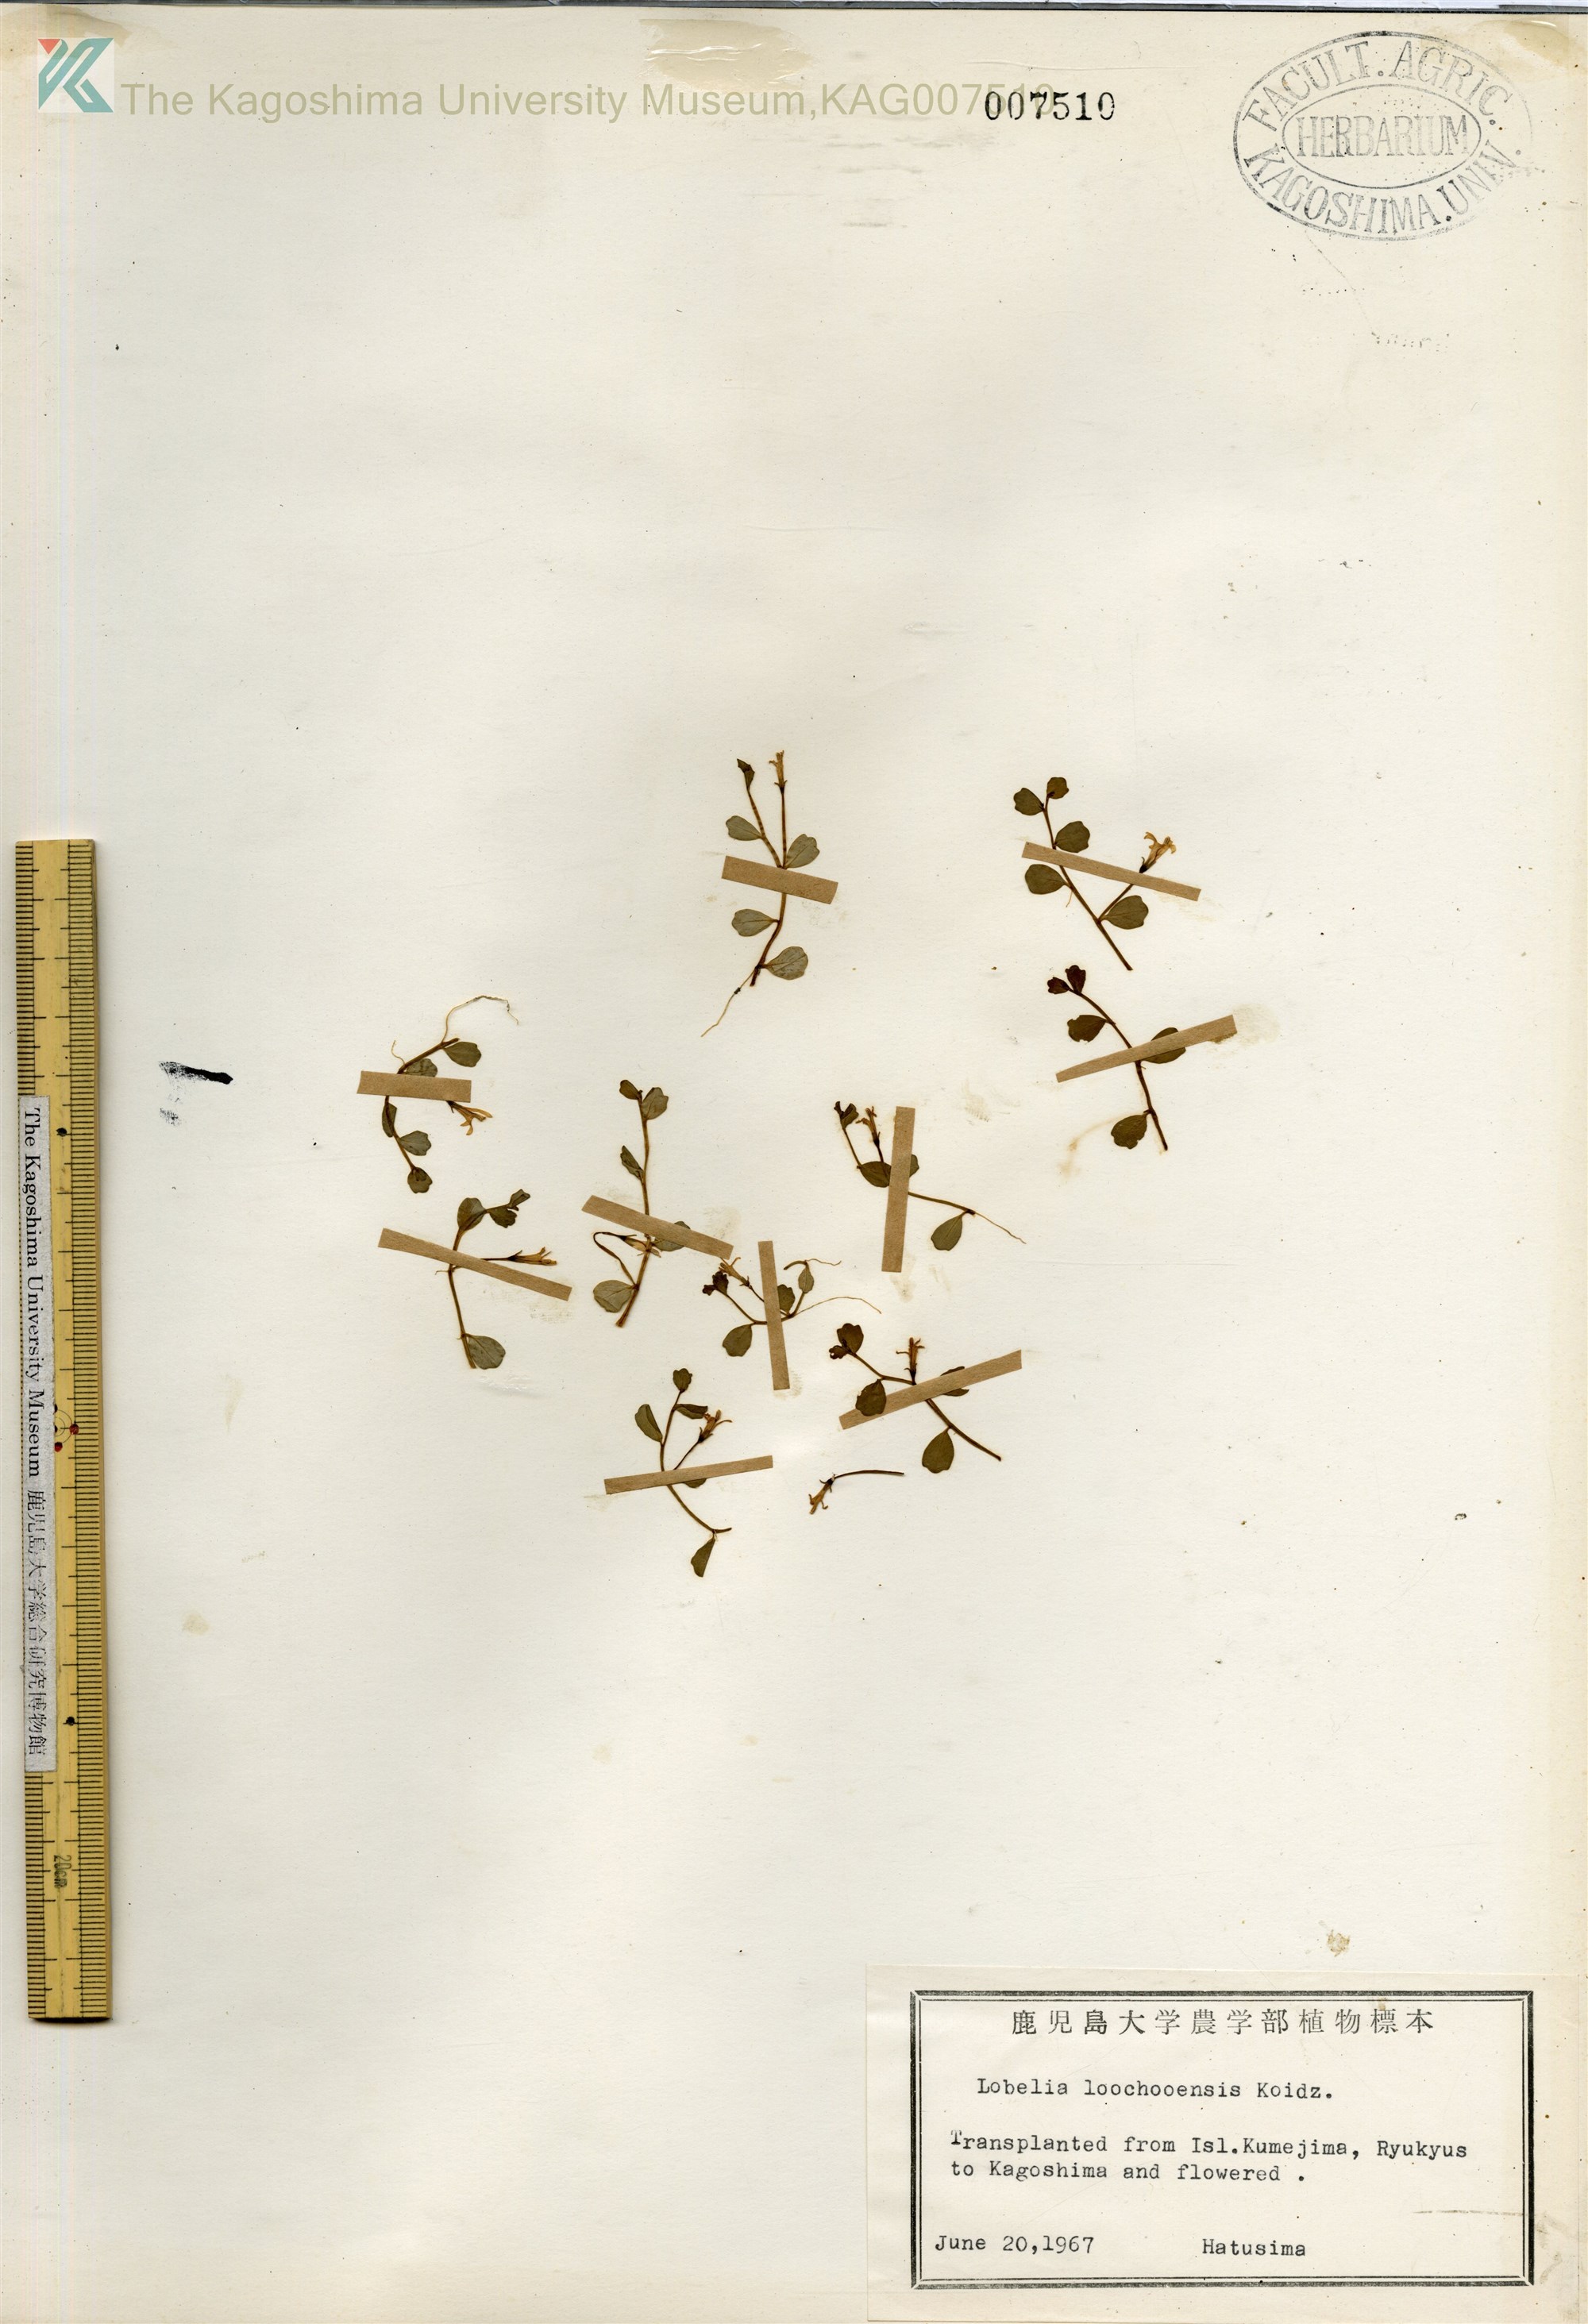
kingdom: Plantae
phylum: Tracheophyta
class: Magnoliopsida
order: Asterales
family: Campanulaceae
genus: Lobelia
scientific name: Lobelia loochooensis
